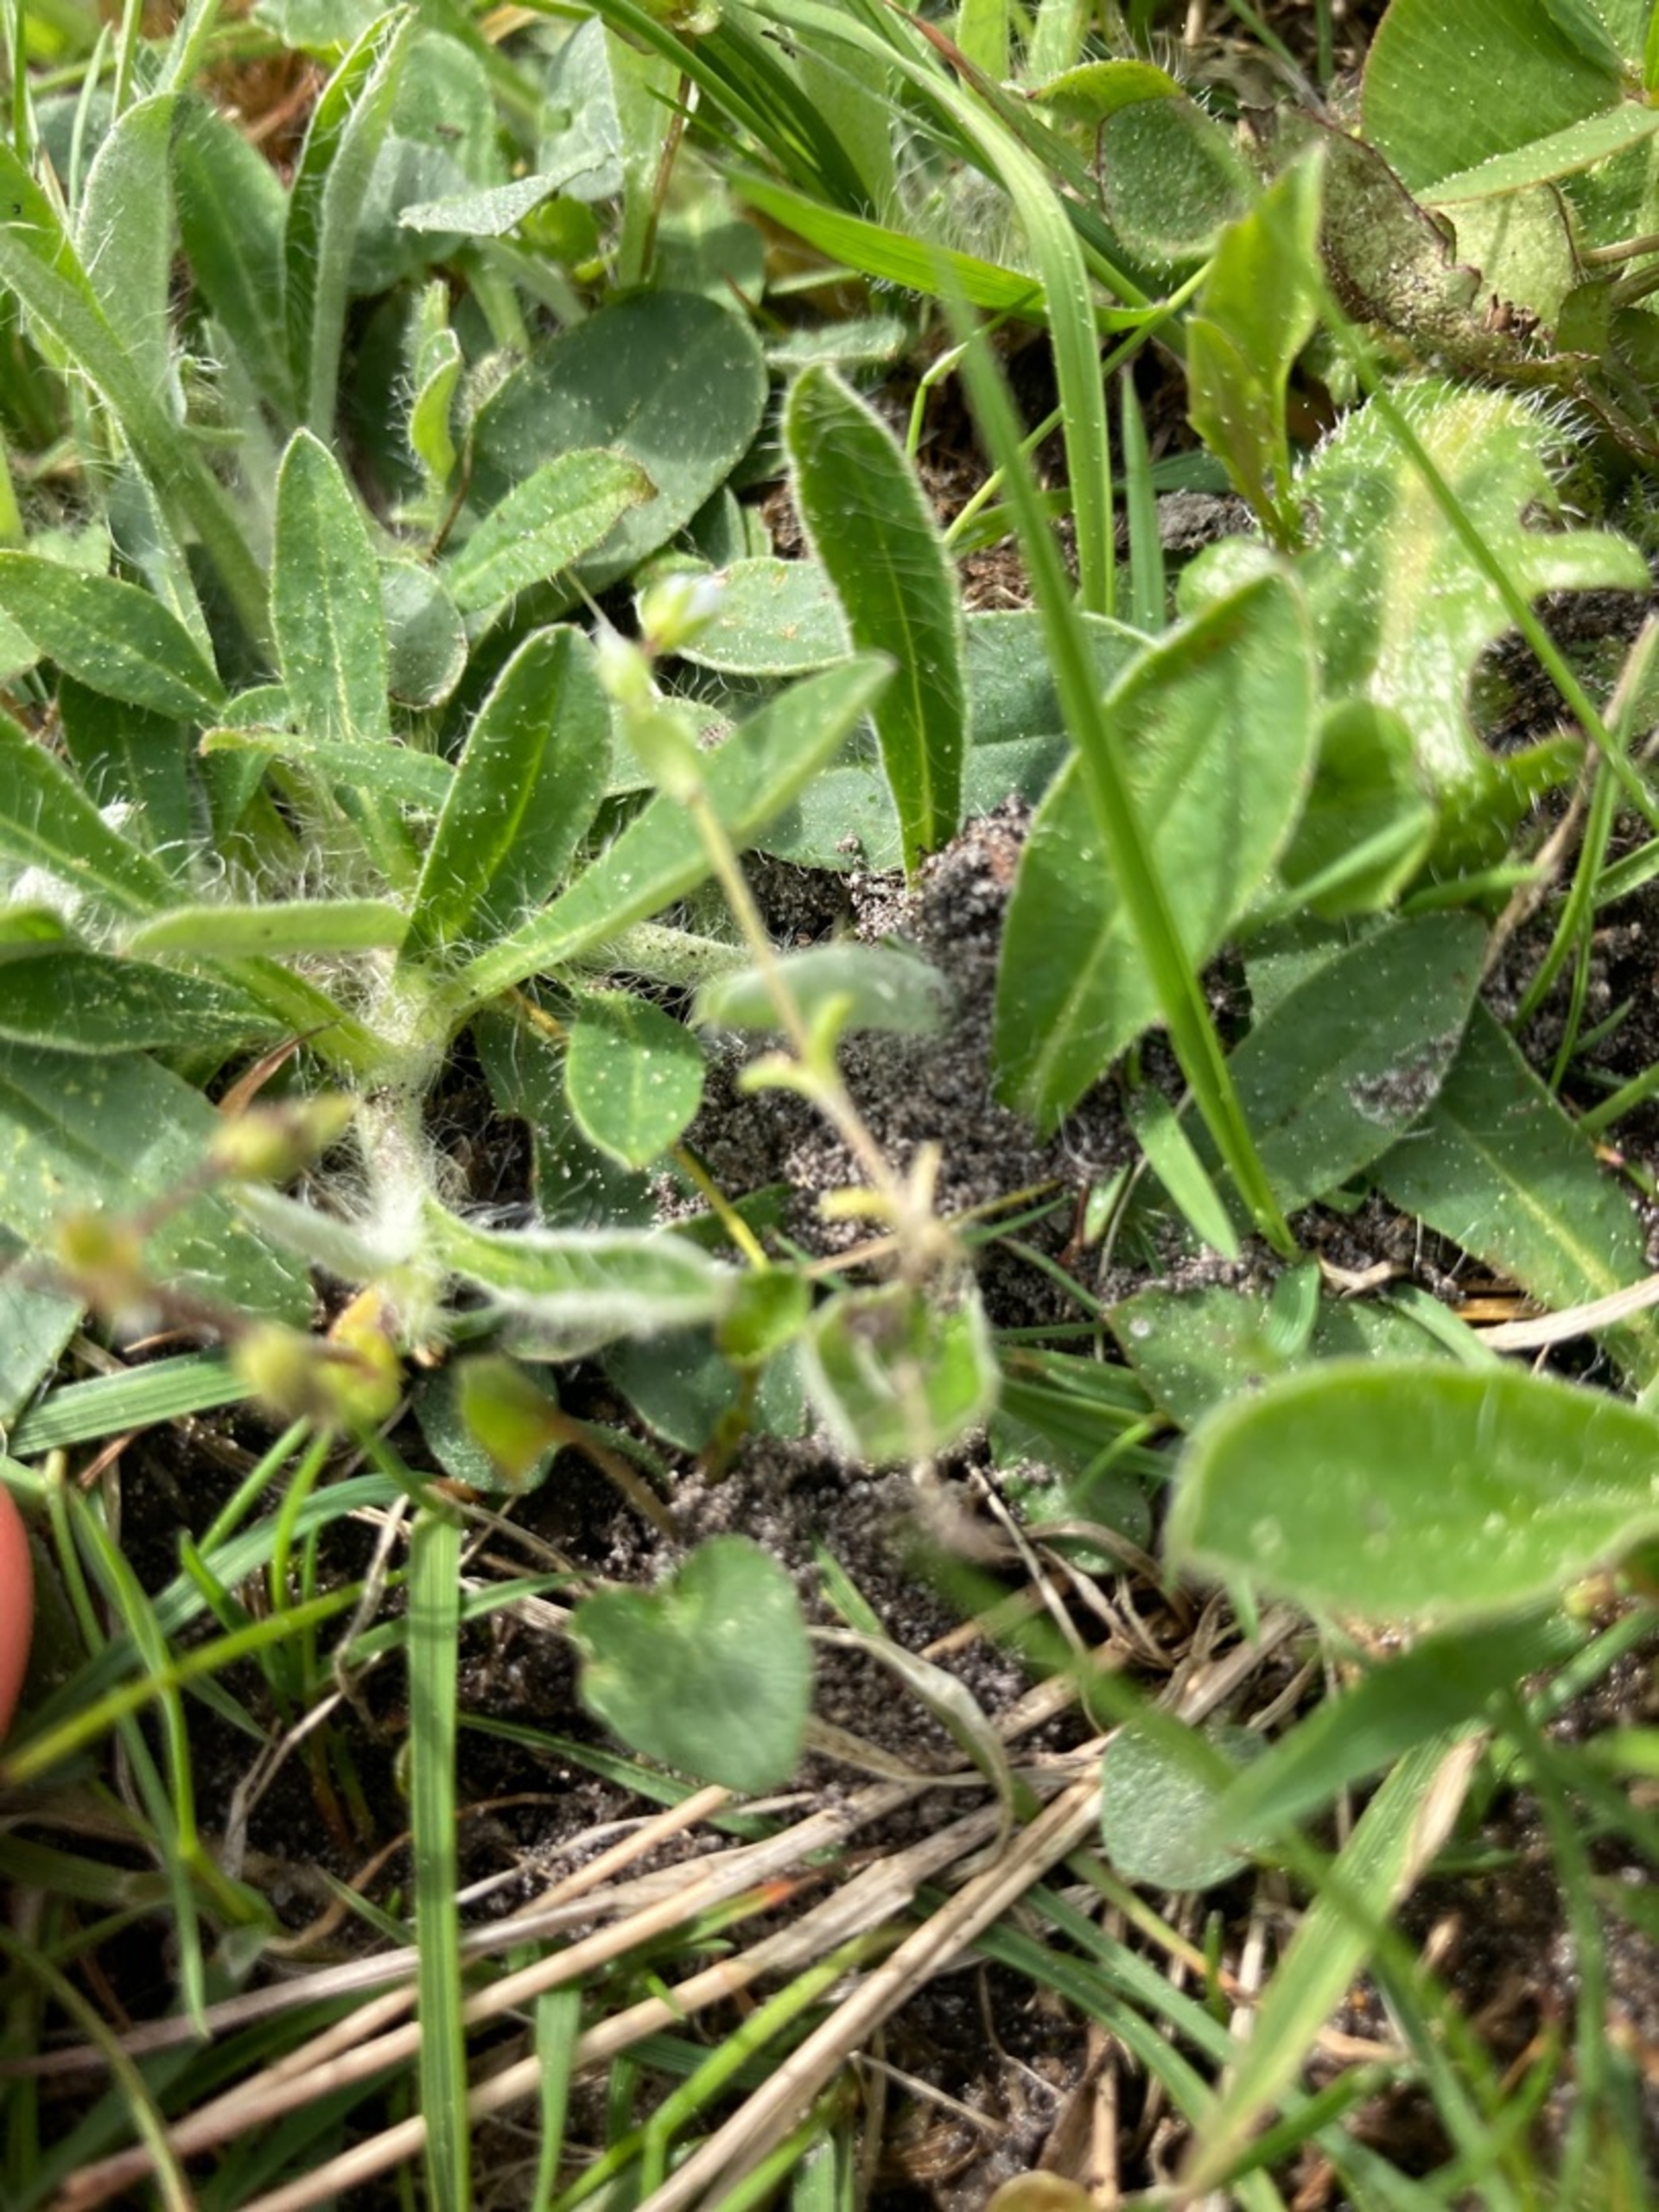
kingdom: Plantae
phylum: Tracheophyta
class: Magnoliopsida
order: Asterales
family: Asteraceae
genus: Pilosella
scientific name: Pilosella officinarum
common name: Håret høgeurt
